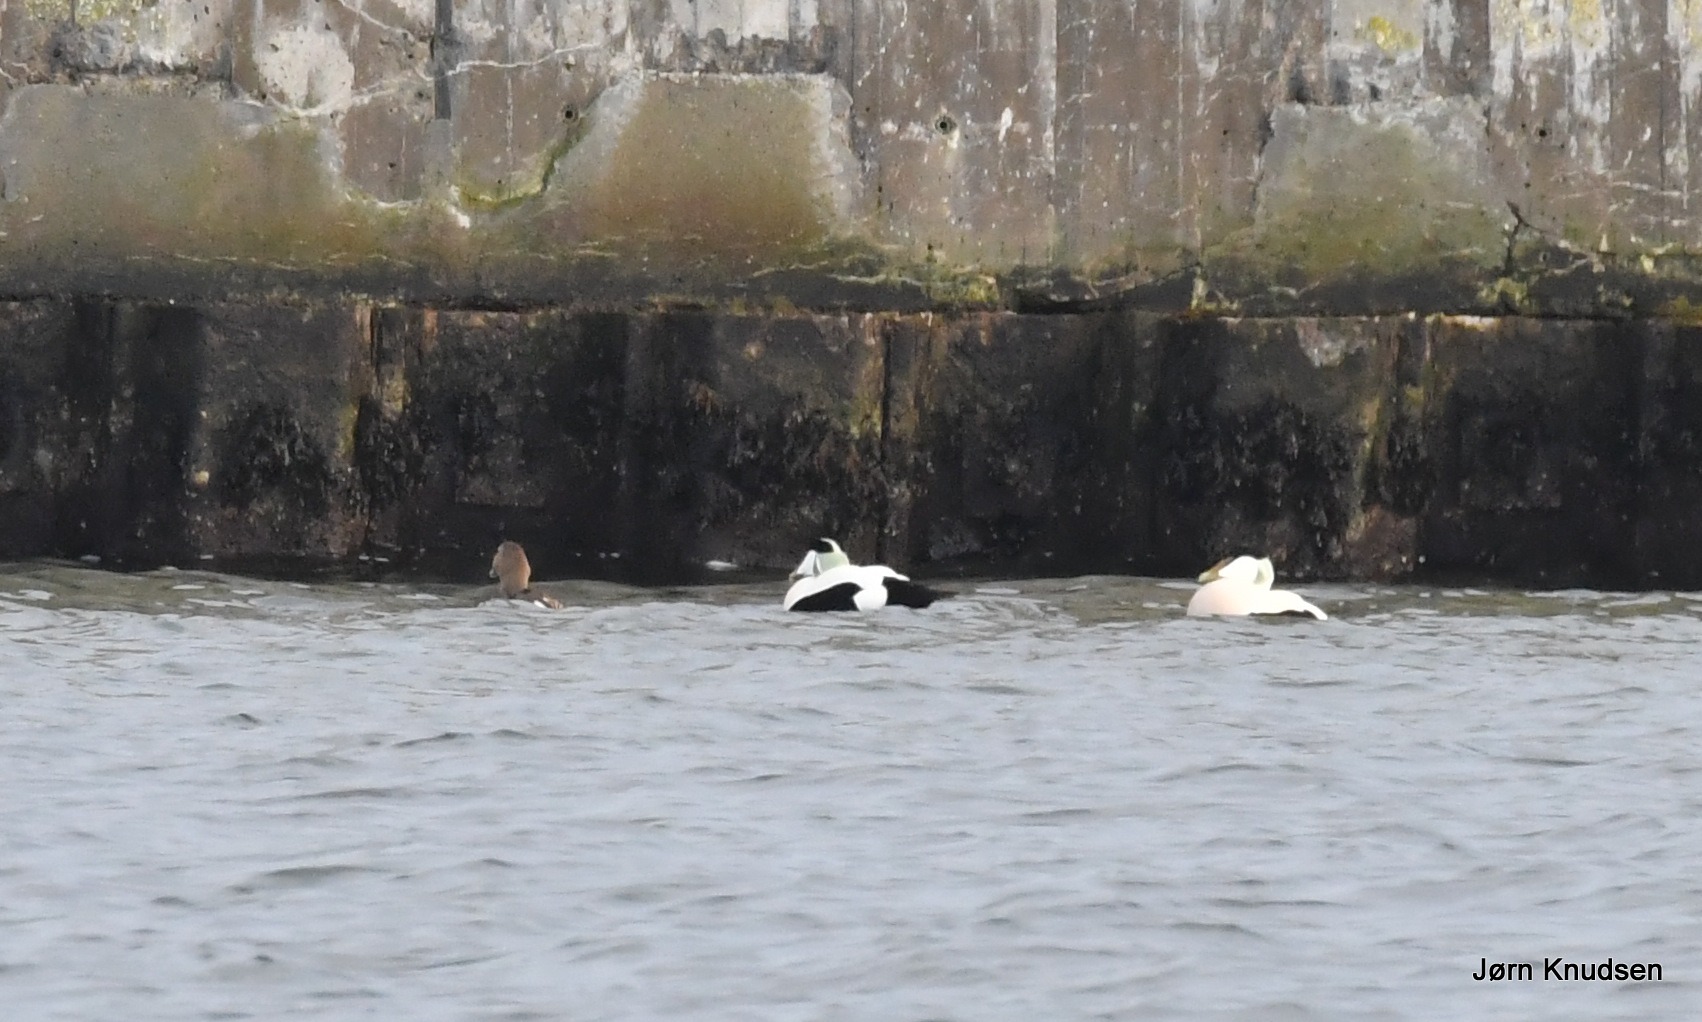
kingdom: Animalia
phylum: Chordata
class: Aves
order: Anseriformes
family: Anatidae
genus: Somateria
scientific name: Somateria mollissima
